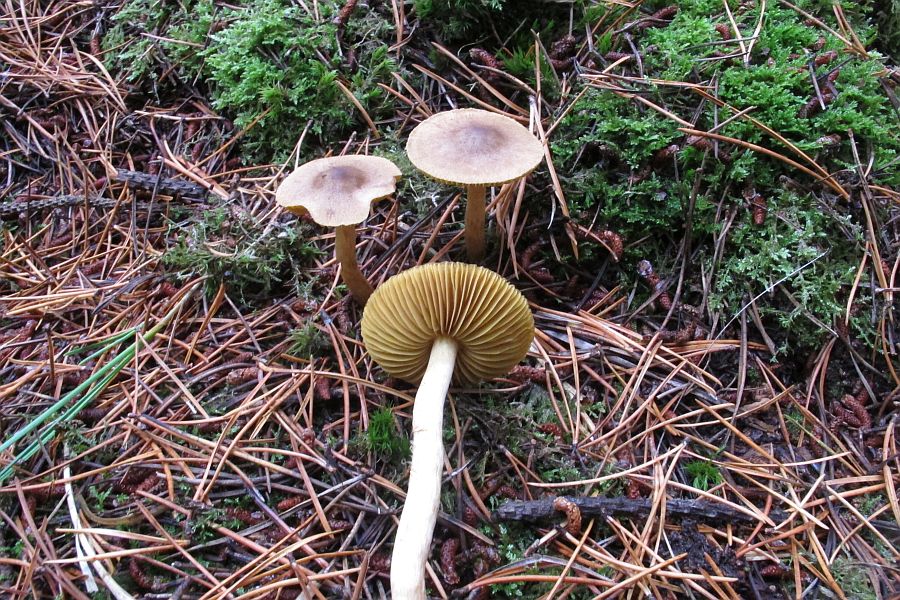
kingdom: Fungi
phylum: Basidiomycota
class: Agaricomycetes
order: Agaricales
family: Cortinariaceae
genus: Cortinarius
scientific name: Cortinarius
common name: gulbladet slørhat
